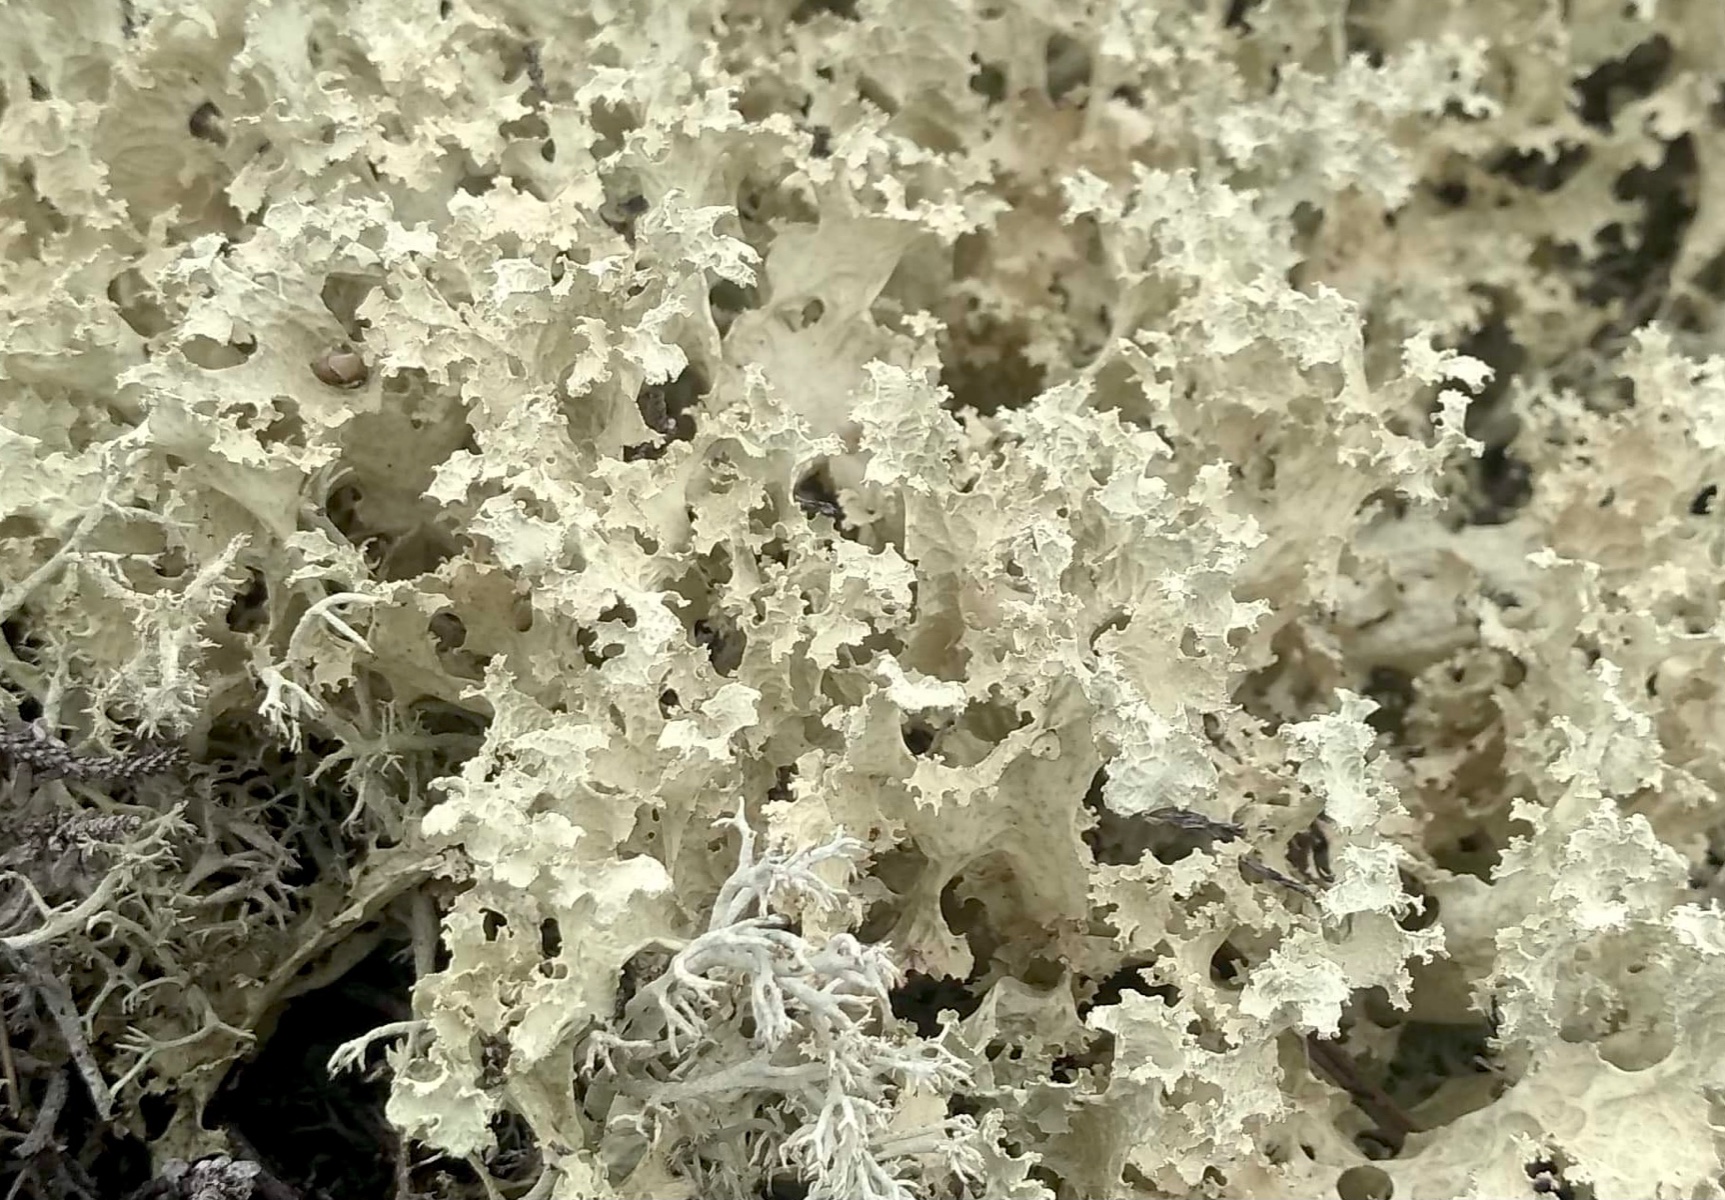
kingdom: Fungi
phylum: Ascomycota
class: Lecanoromycetes
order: Lecanorales
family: Parmeliaceae
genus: Nephromopsis
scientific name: Nephromopsis nivalis
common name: sne-kruslav
